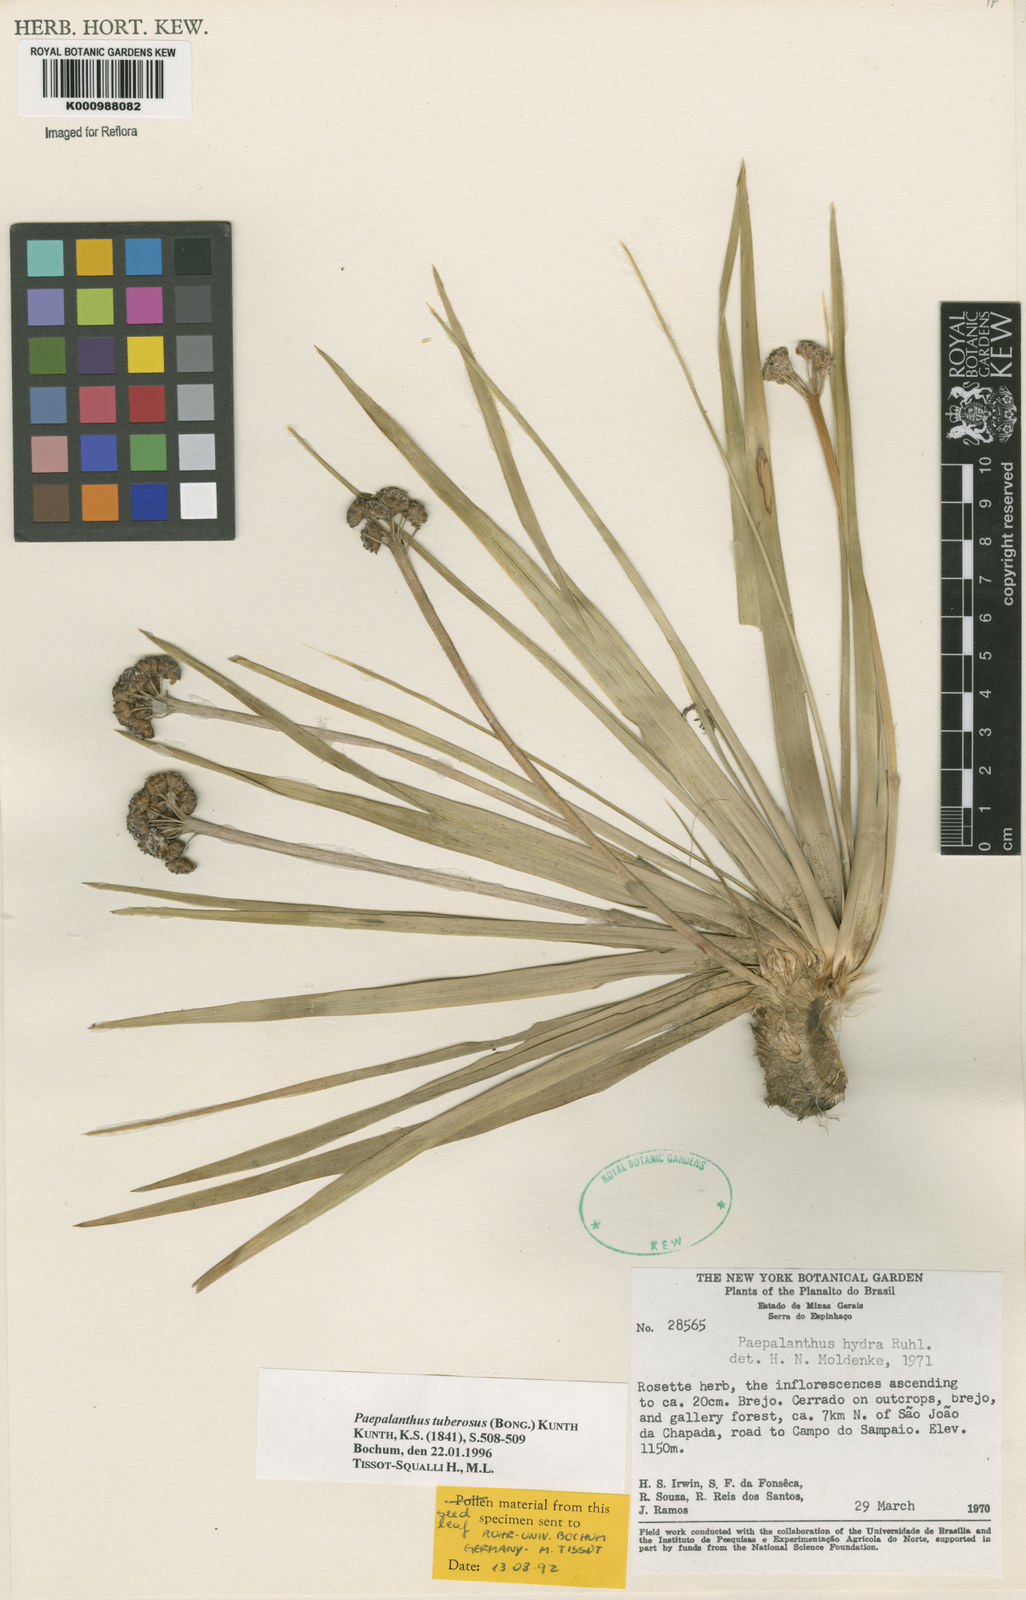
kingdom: Plantae
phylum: Tracheophyta
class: Liliopsida
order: Poales
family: Eriocaulaceae
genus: Paepalanthus
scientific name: Paepalanthus tuberosus
